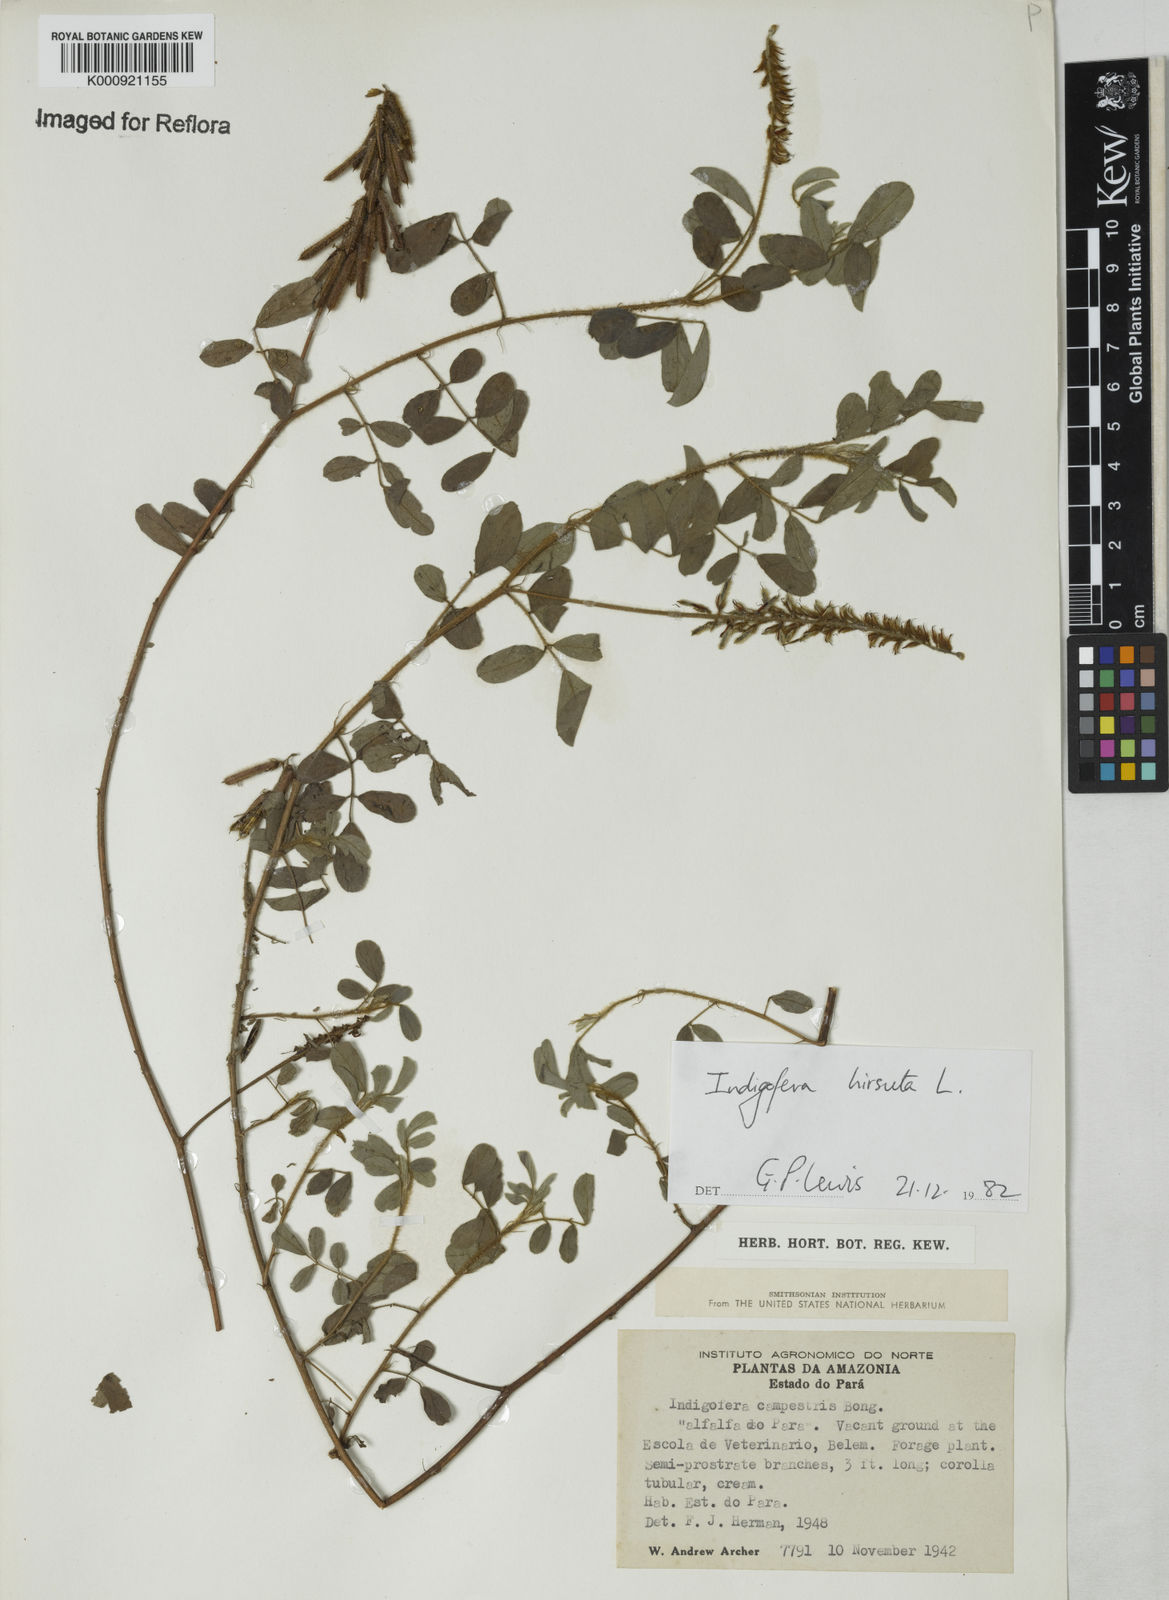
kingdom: Plantae
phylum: Tracheophyta
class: Magnoliopsida
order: Fabales
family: Fabaceae
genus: Indigofera
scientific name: Indigofera
